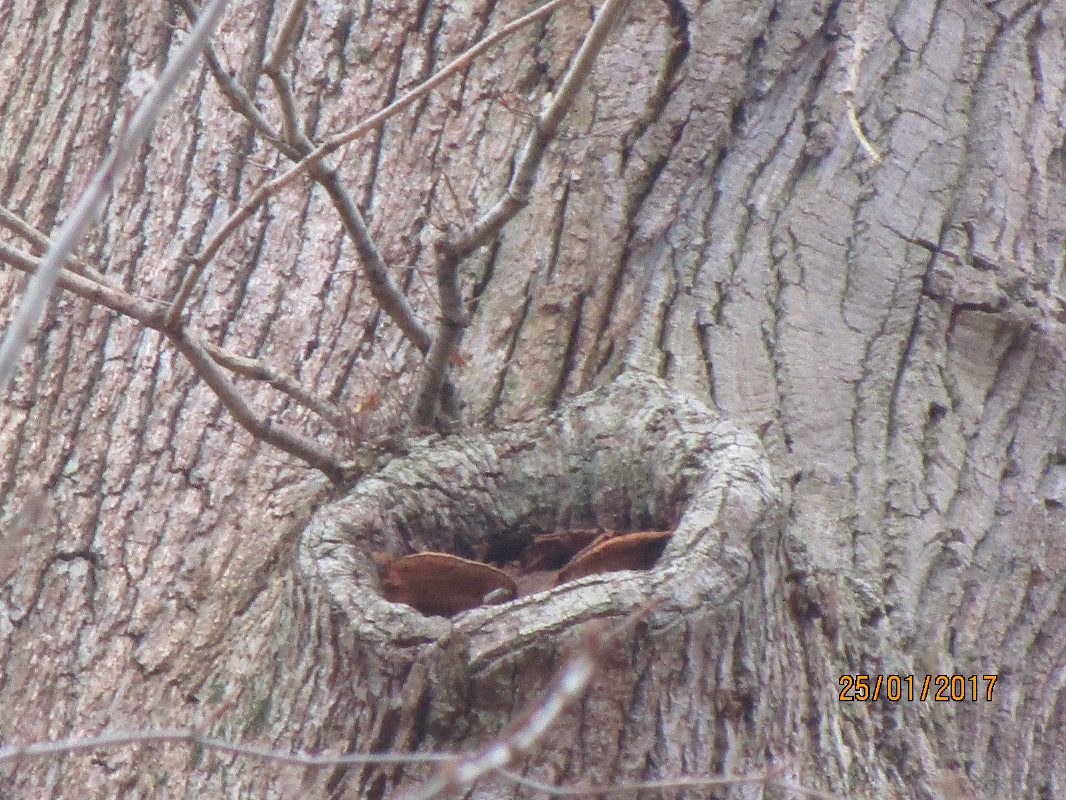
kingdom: Fungi
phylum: Basidiomycota
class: Agaricomycetes
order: Polyporales
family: Phanerochaetaceae
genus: Hapalopilus
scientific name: Hapalopilus croceus
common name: safrangul pragtporesvamp
